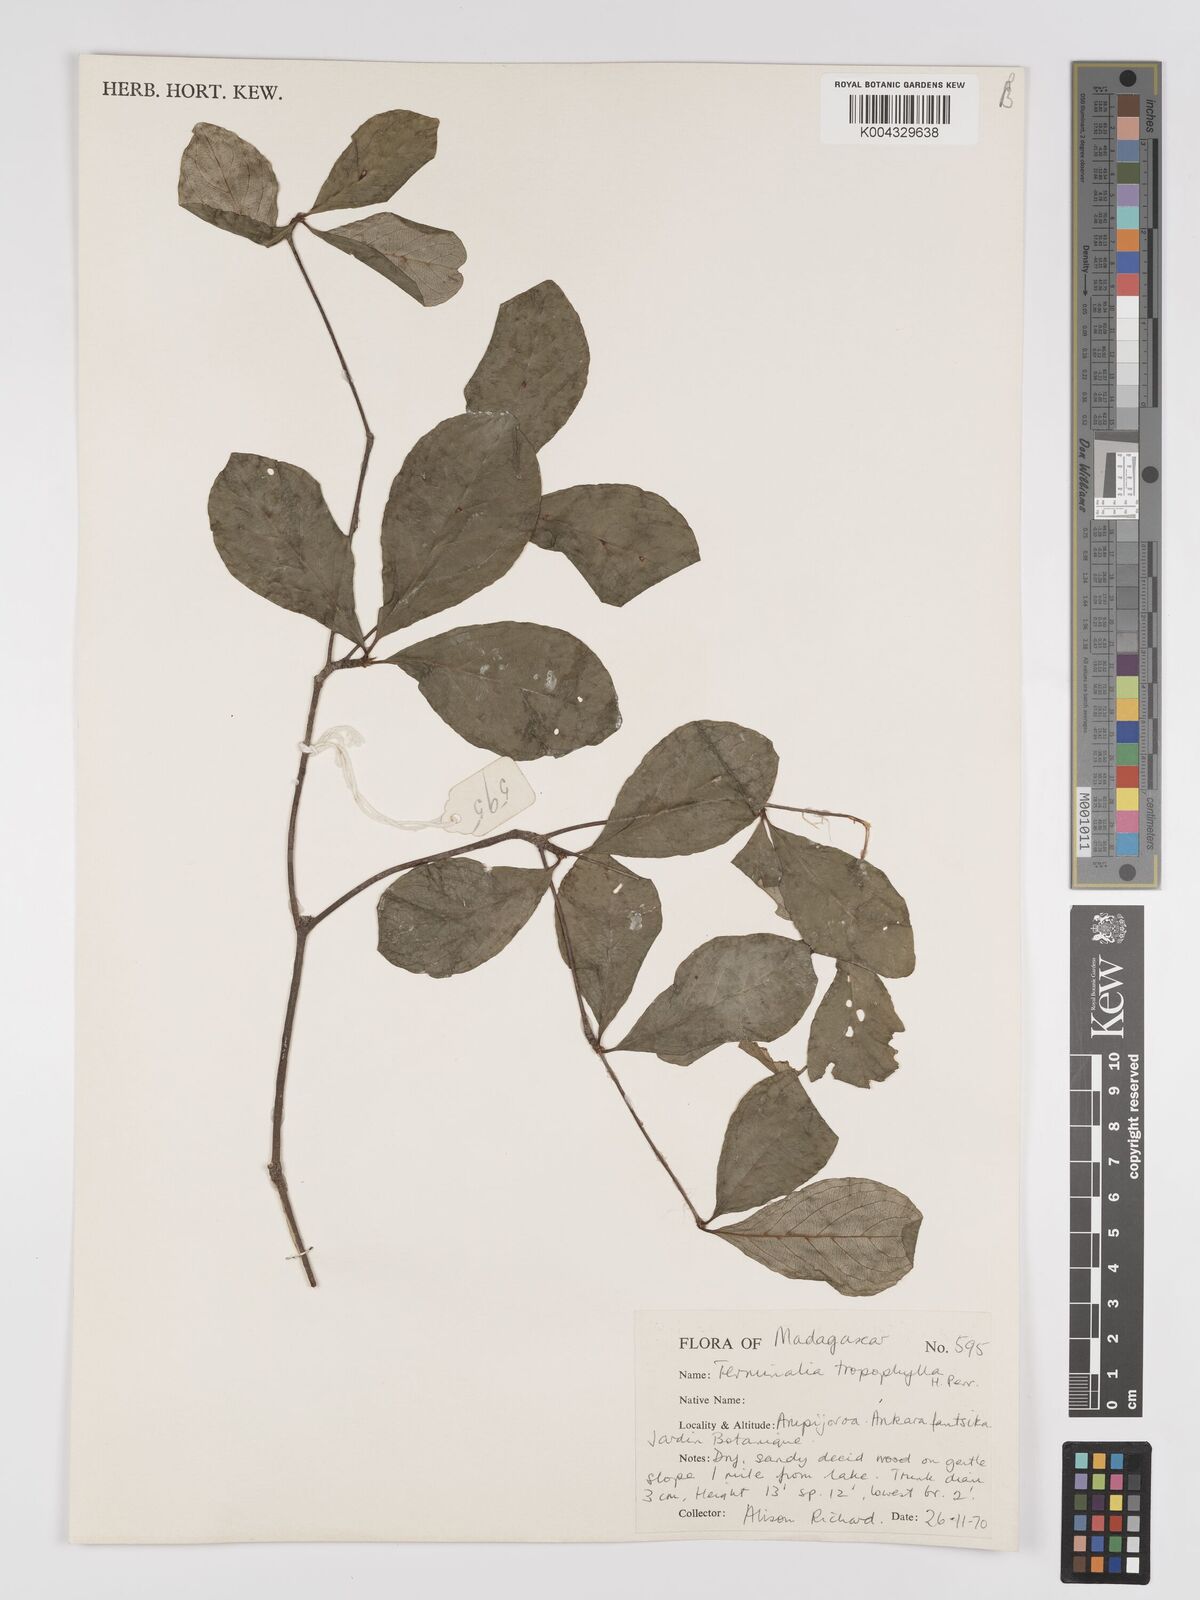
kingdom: Plantae
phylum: Tracheophyta
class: Magnoliopsida
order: Myrtales
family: Combretaceae
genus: Terminalia
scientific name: Terminalia tropophylla
